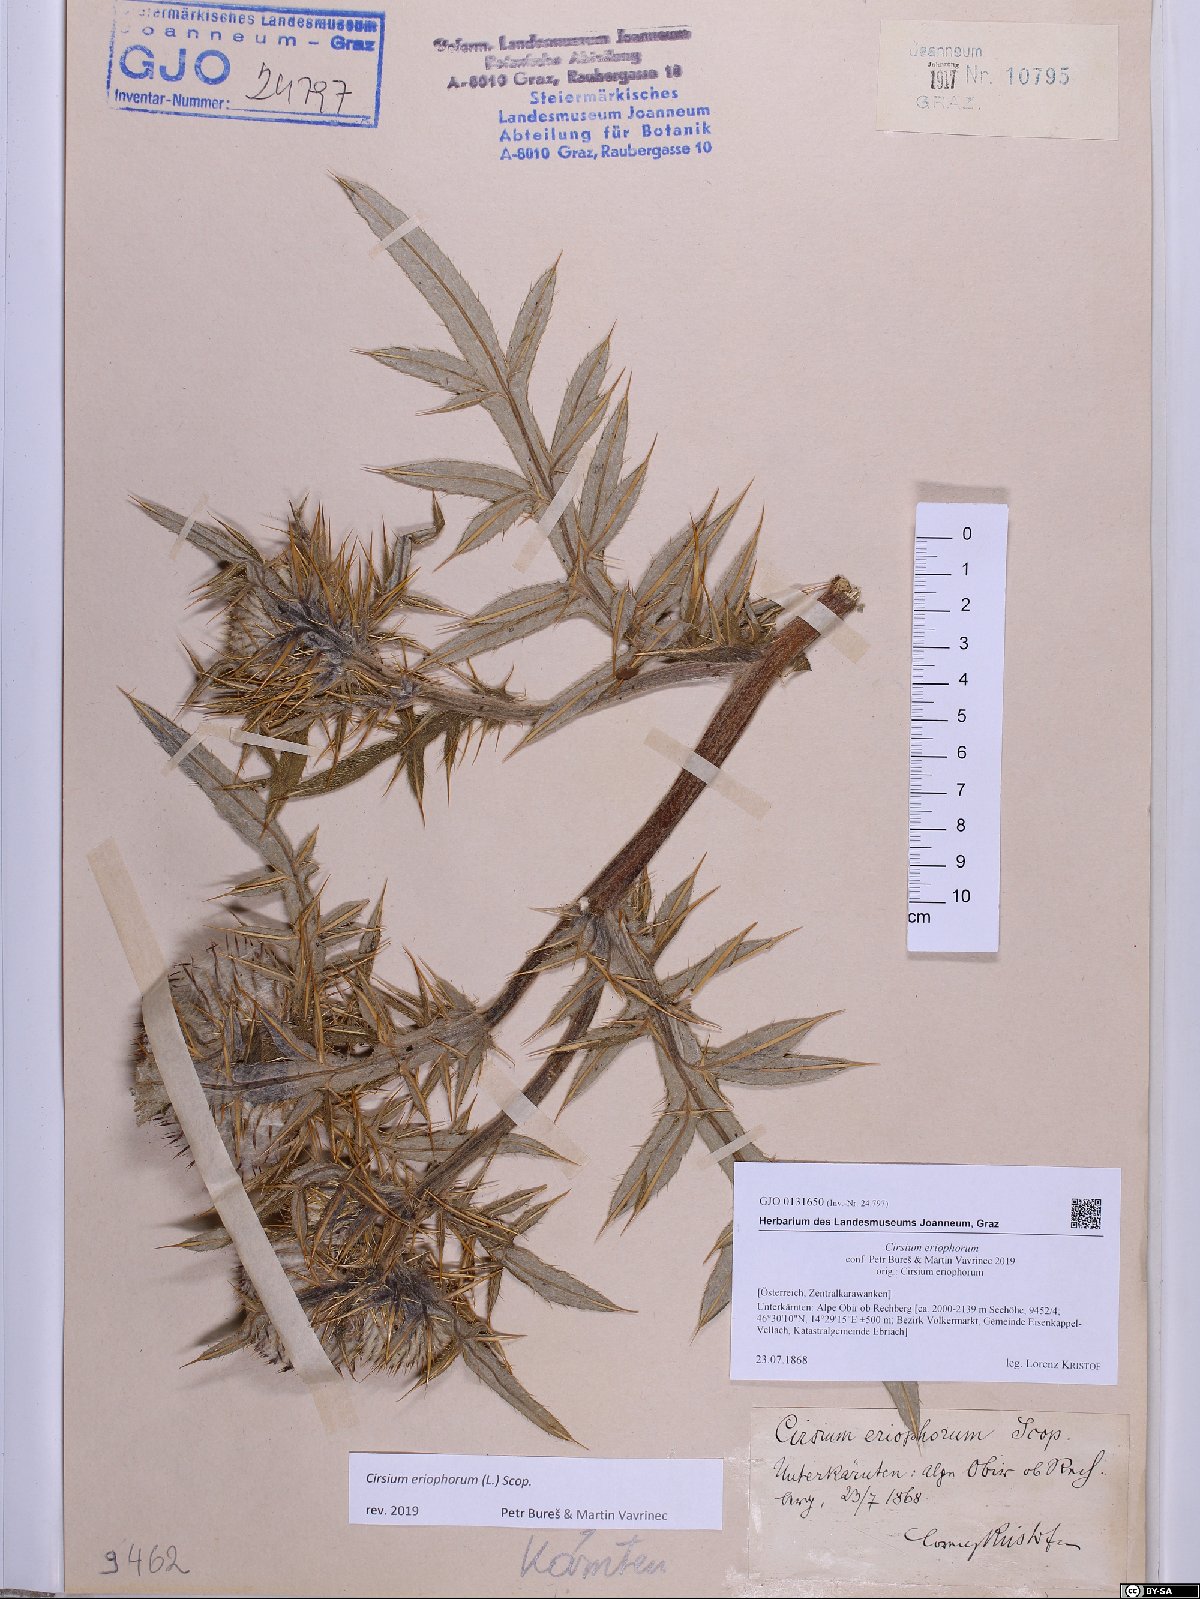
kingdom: Plantae
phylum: Tracheophyta
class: Magnoliopsida
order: Asterales
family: Asteraceae
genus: Lophiolepis
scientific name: Lophiolepis eriophora
